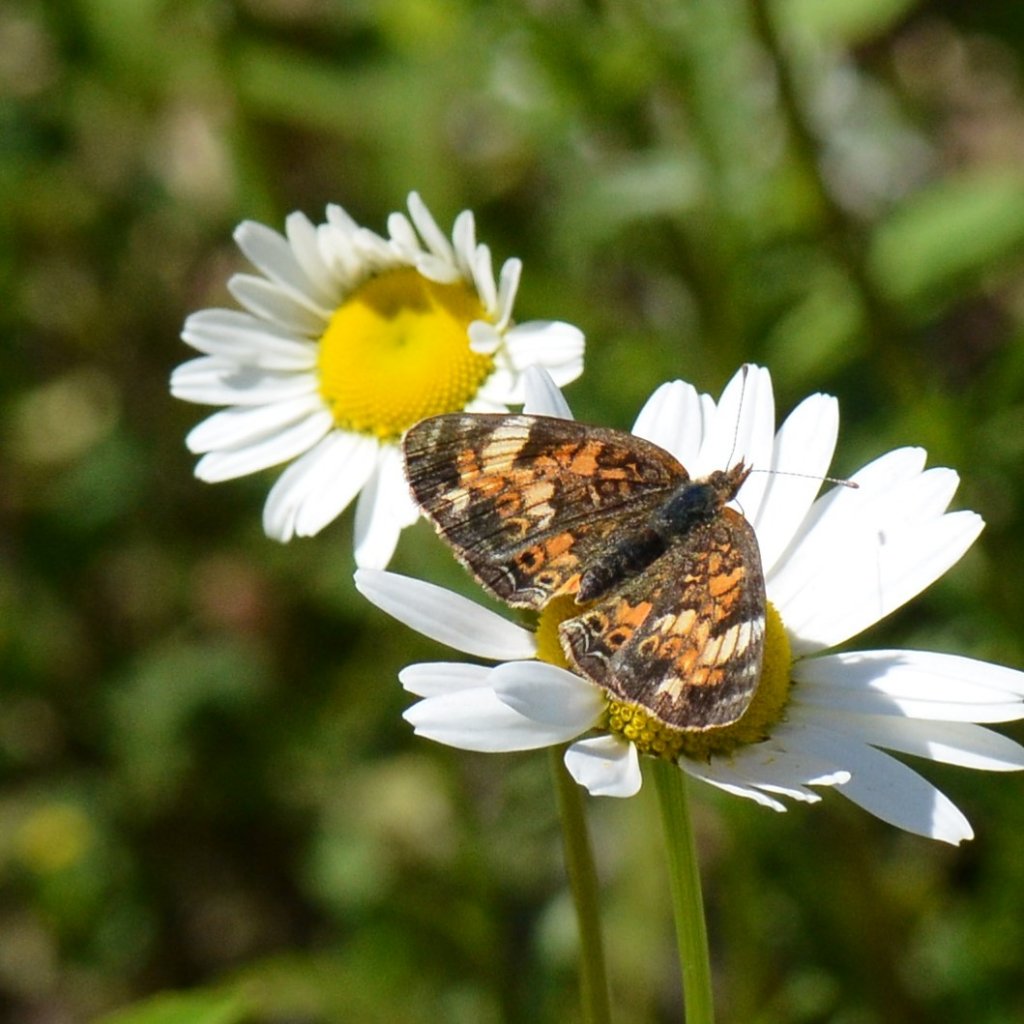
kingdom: Animalia
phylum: Arthropoda
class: Insecta
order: Lepidoptera
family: Nymphalidae
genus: Phyciodes
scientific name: Phyciodes tharos
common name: Northern Crescent
